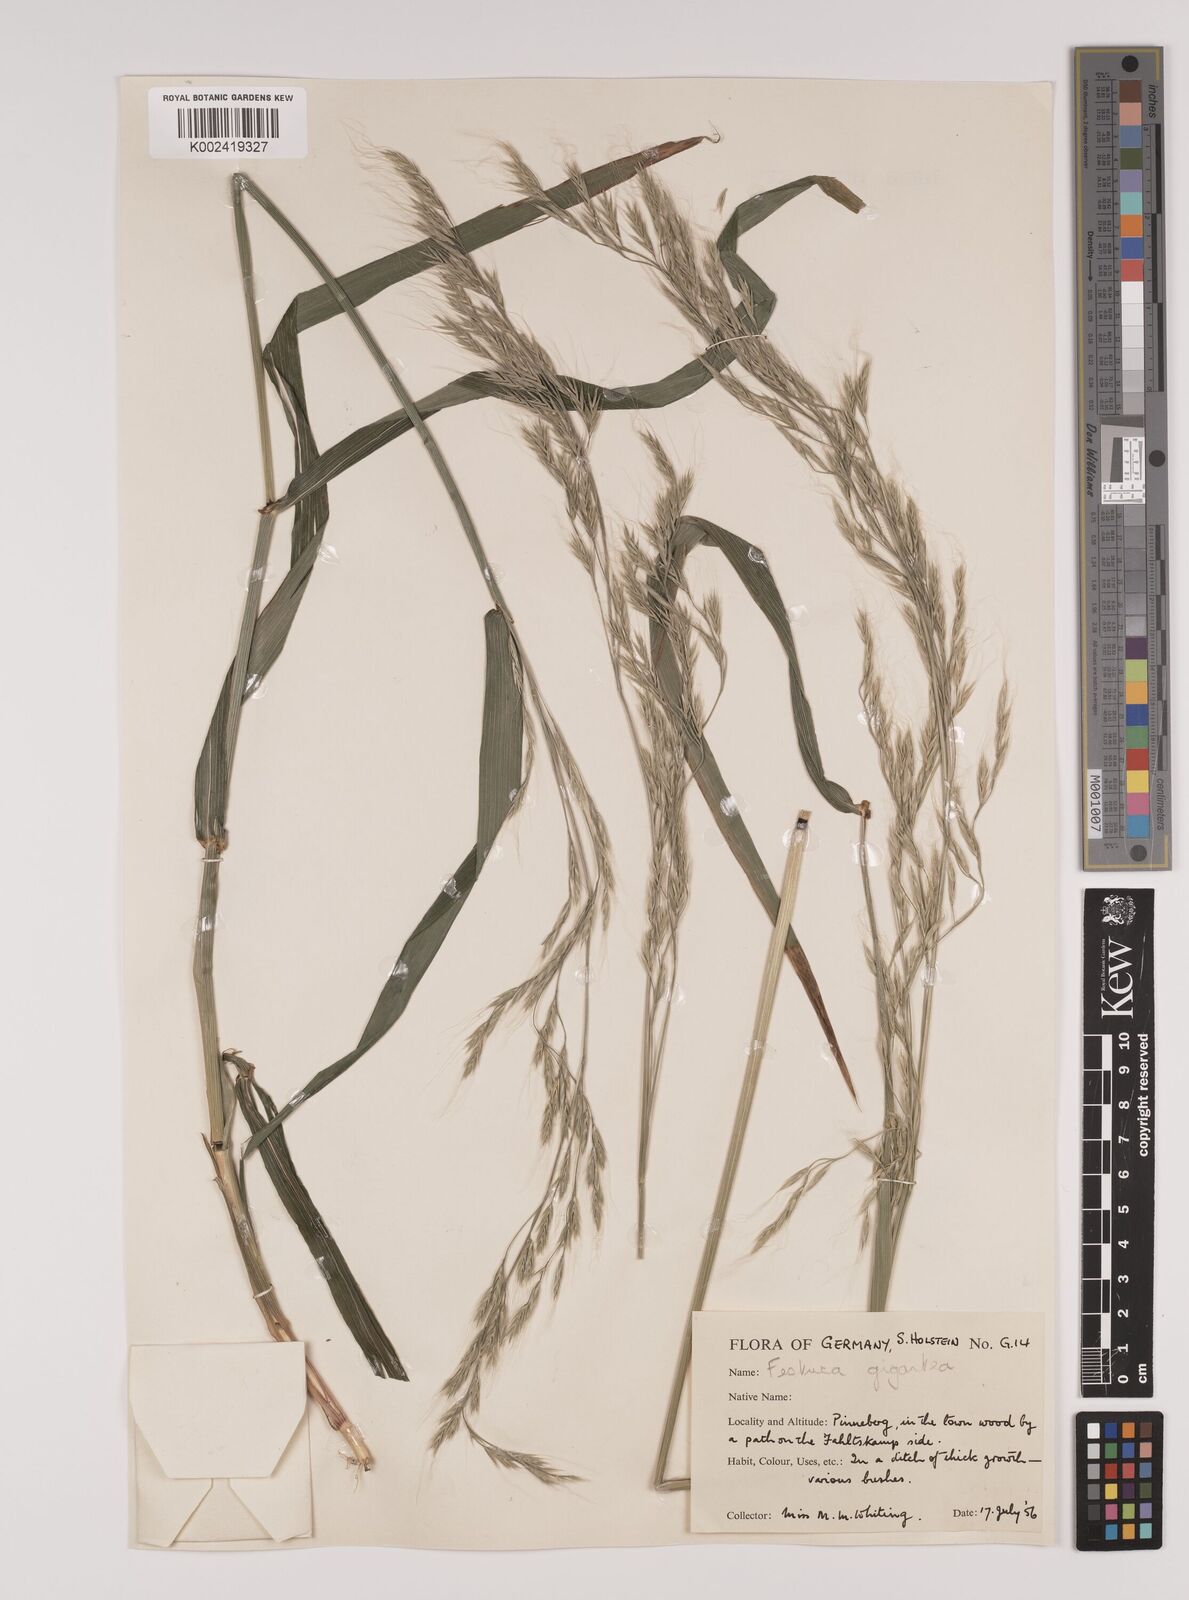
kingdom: Plantae
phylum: Tracheophyta
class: Liliopsida
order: Poales
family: Poaceae
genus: Lolium
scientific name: Lolium giganteum
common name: Giant fescue
